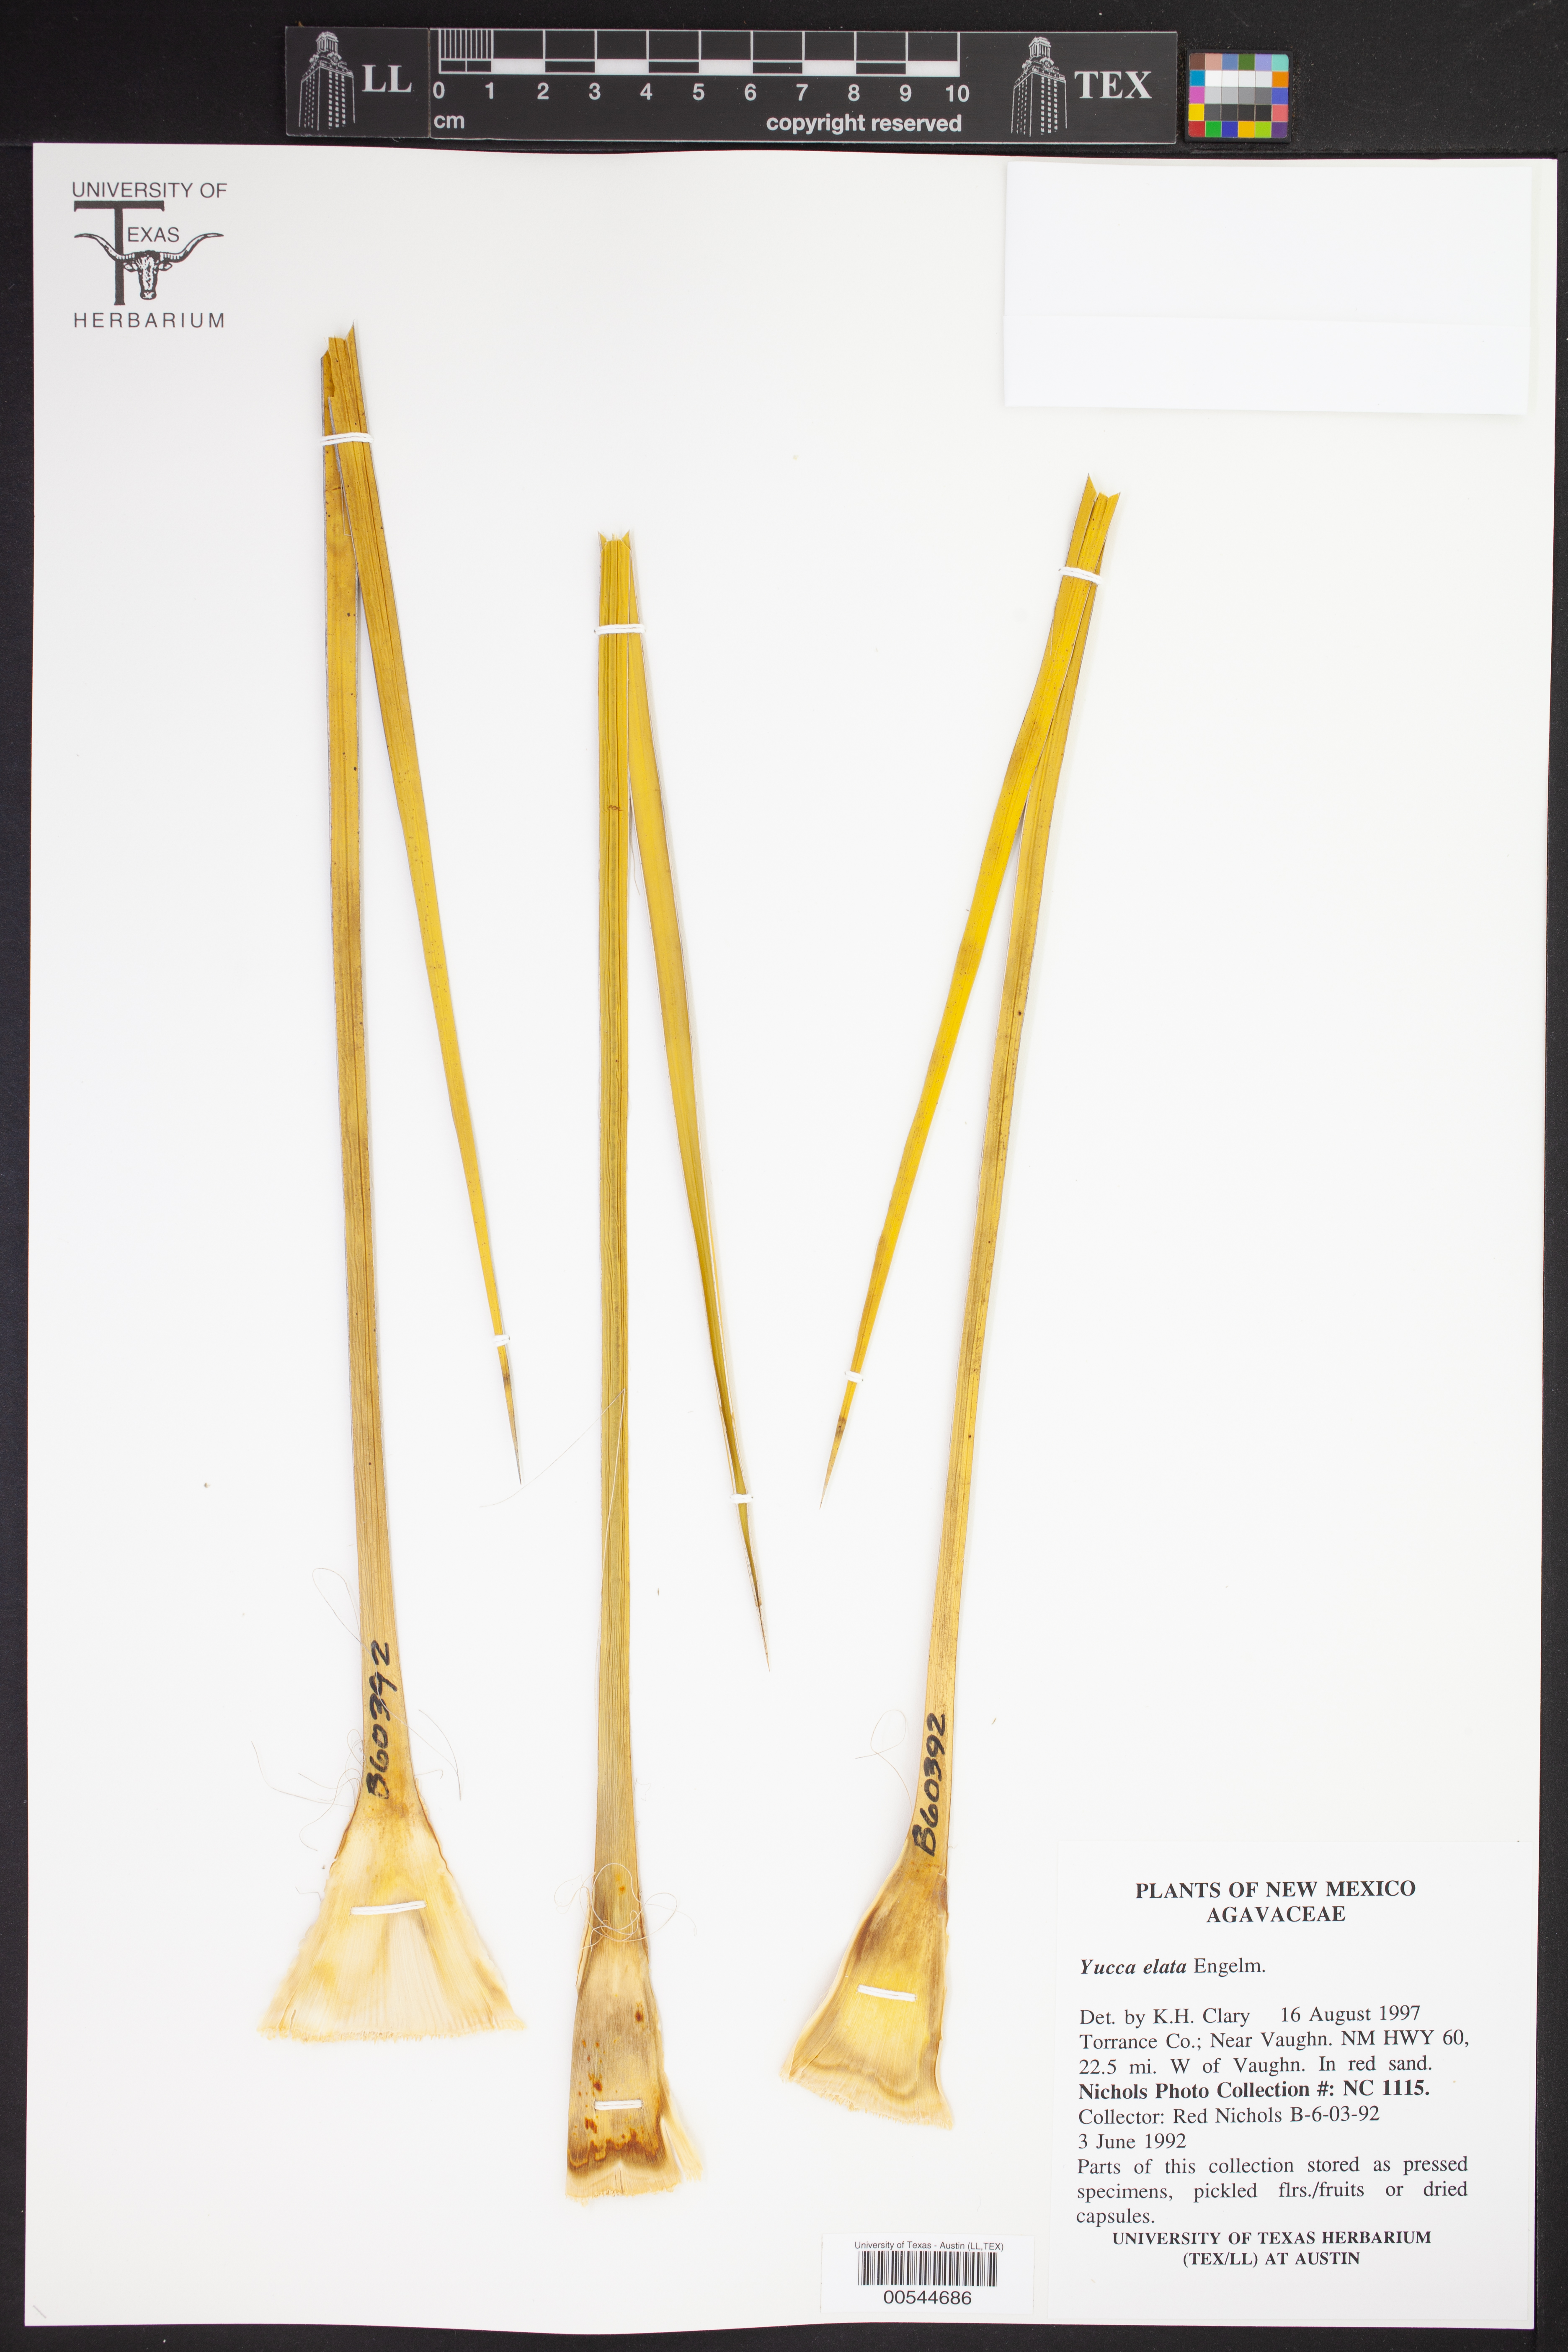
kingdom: Plantae
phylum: Tracheophyta
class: Liliopsida
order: Asparagales
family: Asparagaceae
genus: Yucca
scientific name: Yucca elata
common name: Palmella
